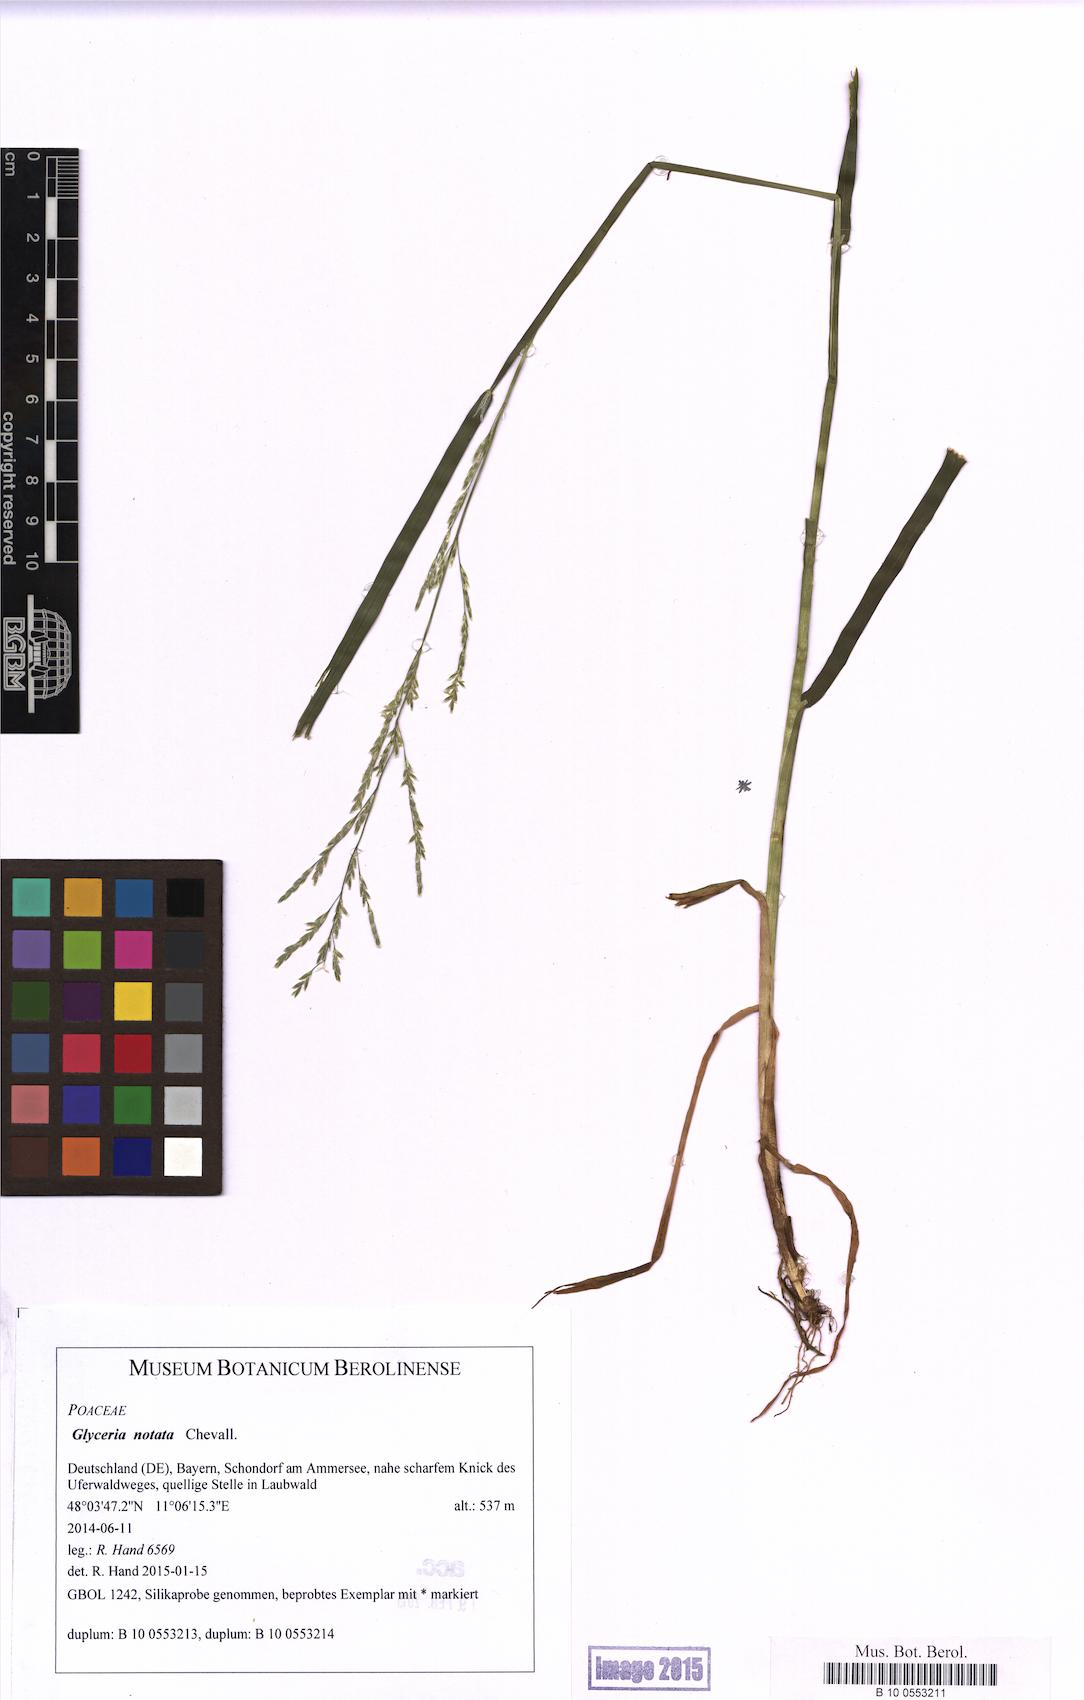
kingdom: Plantae
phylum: Tracheophyta
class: Liliopsida
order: Poales
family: Poaceae
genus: Glyceria
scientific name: Glyceria notata
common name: Plicate sweet-grass
